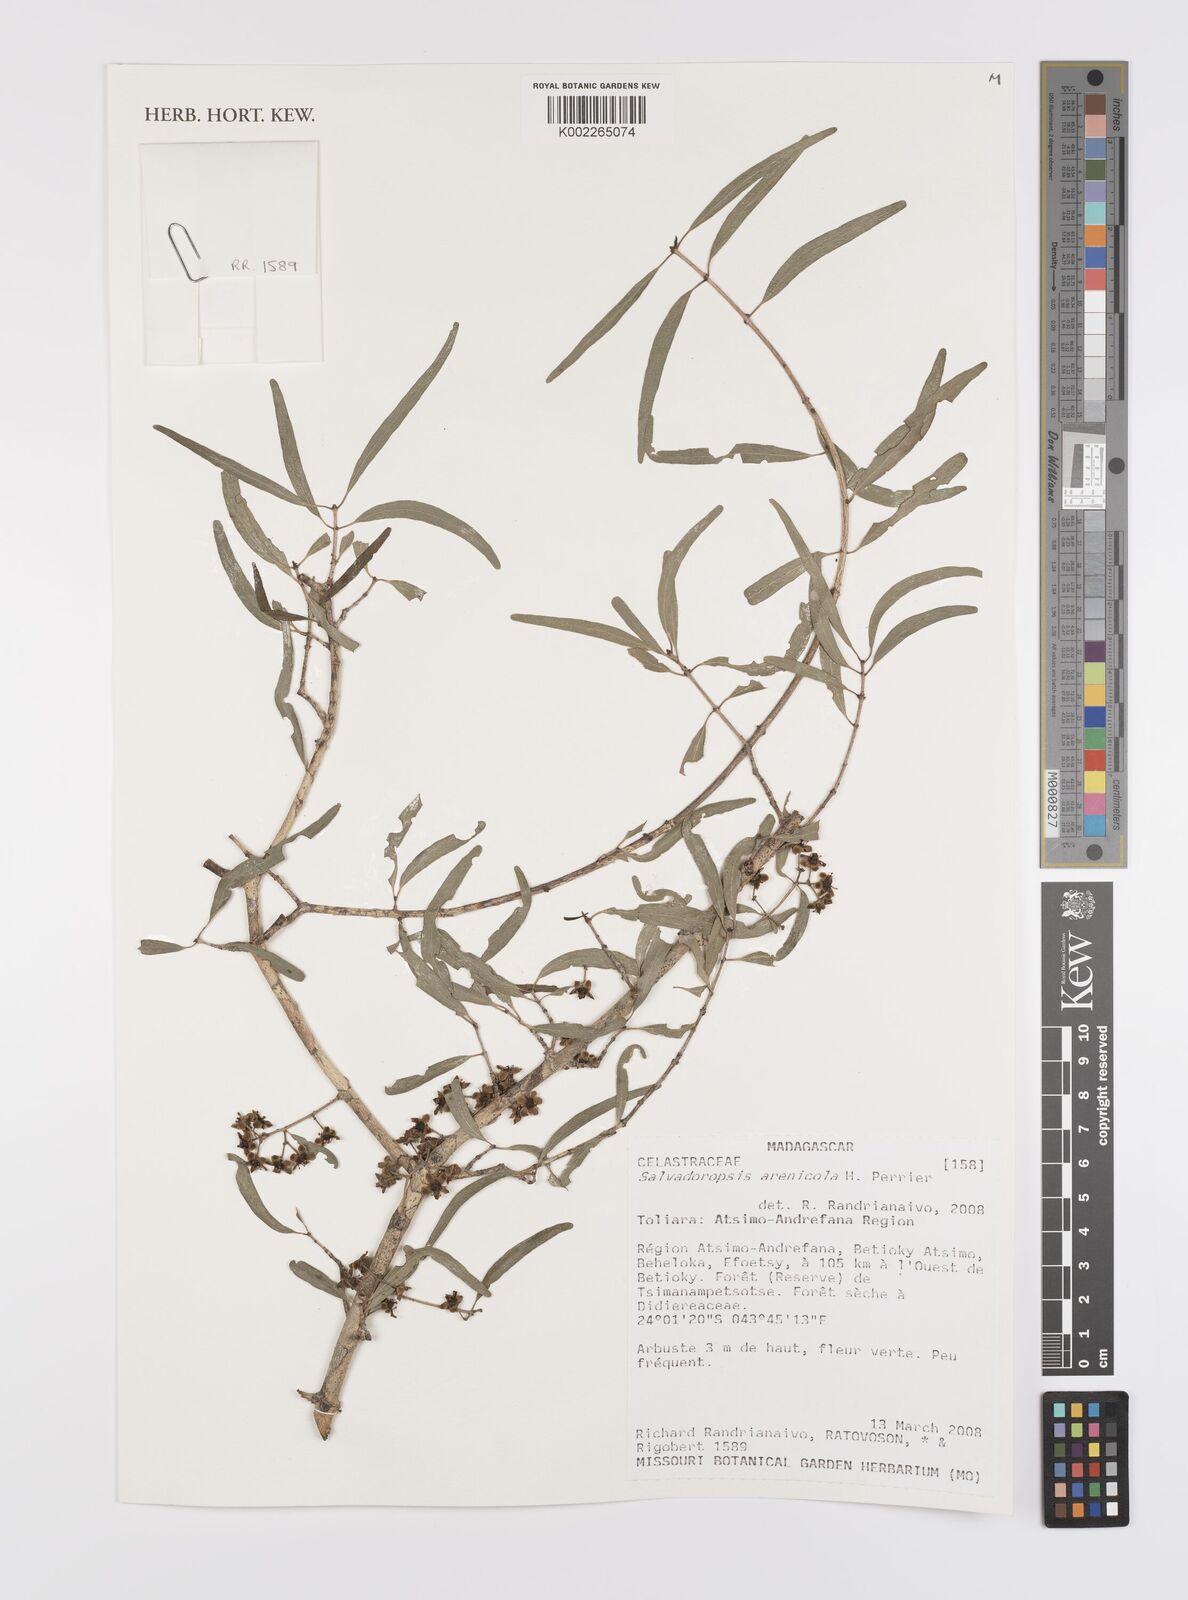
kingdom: Plantae
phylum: Tracheophyta
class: Magnoliopsida
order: Celastrales
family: Celastraceae
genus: Salvadoropsis
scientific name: Salvadoropsis arenicola
